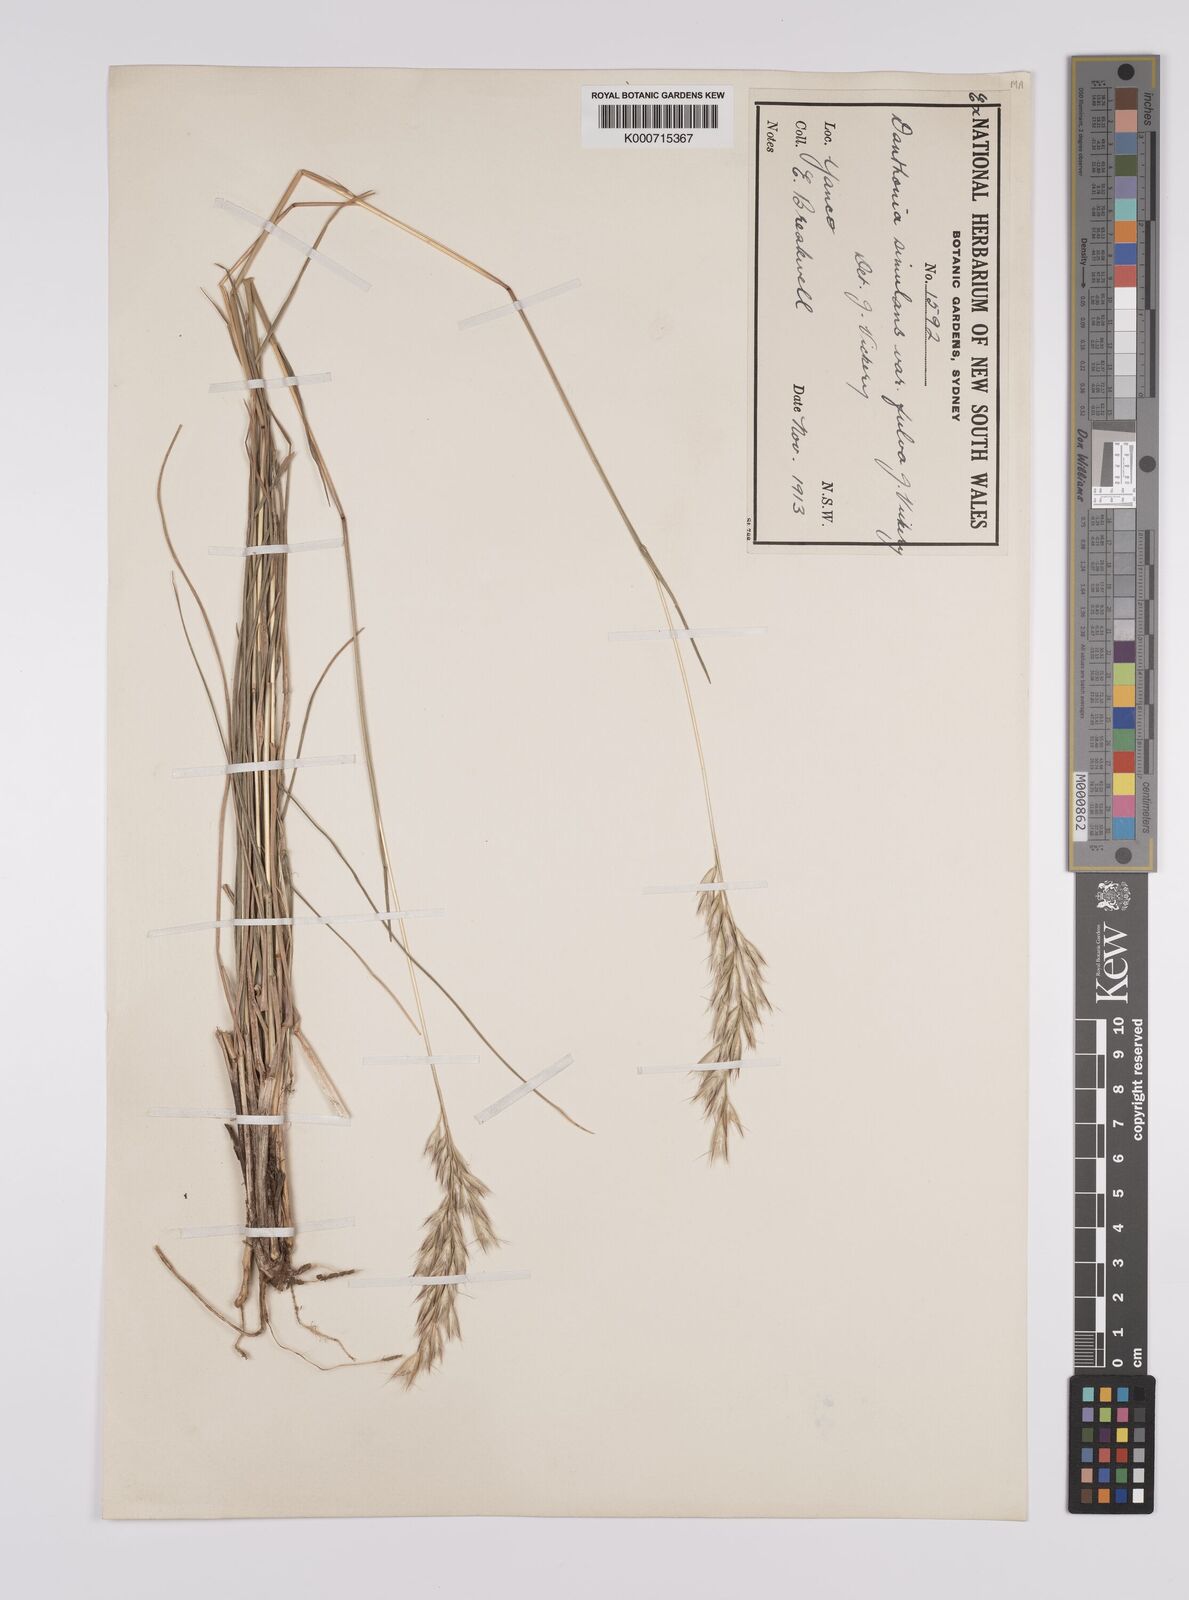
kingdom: Plantae
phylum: Tracheophyta
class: Liliopsida
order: Poales
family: Poaceae
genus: Rytidosperma
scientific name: Rytidosperma bipartitum
